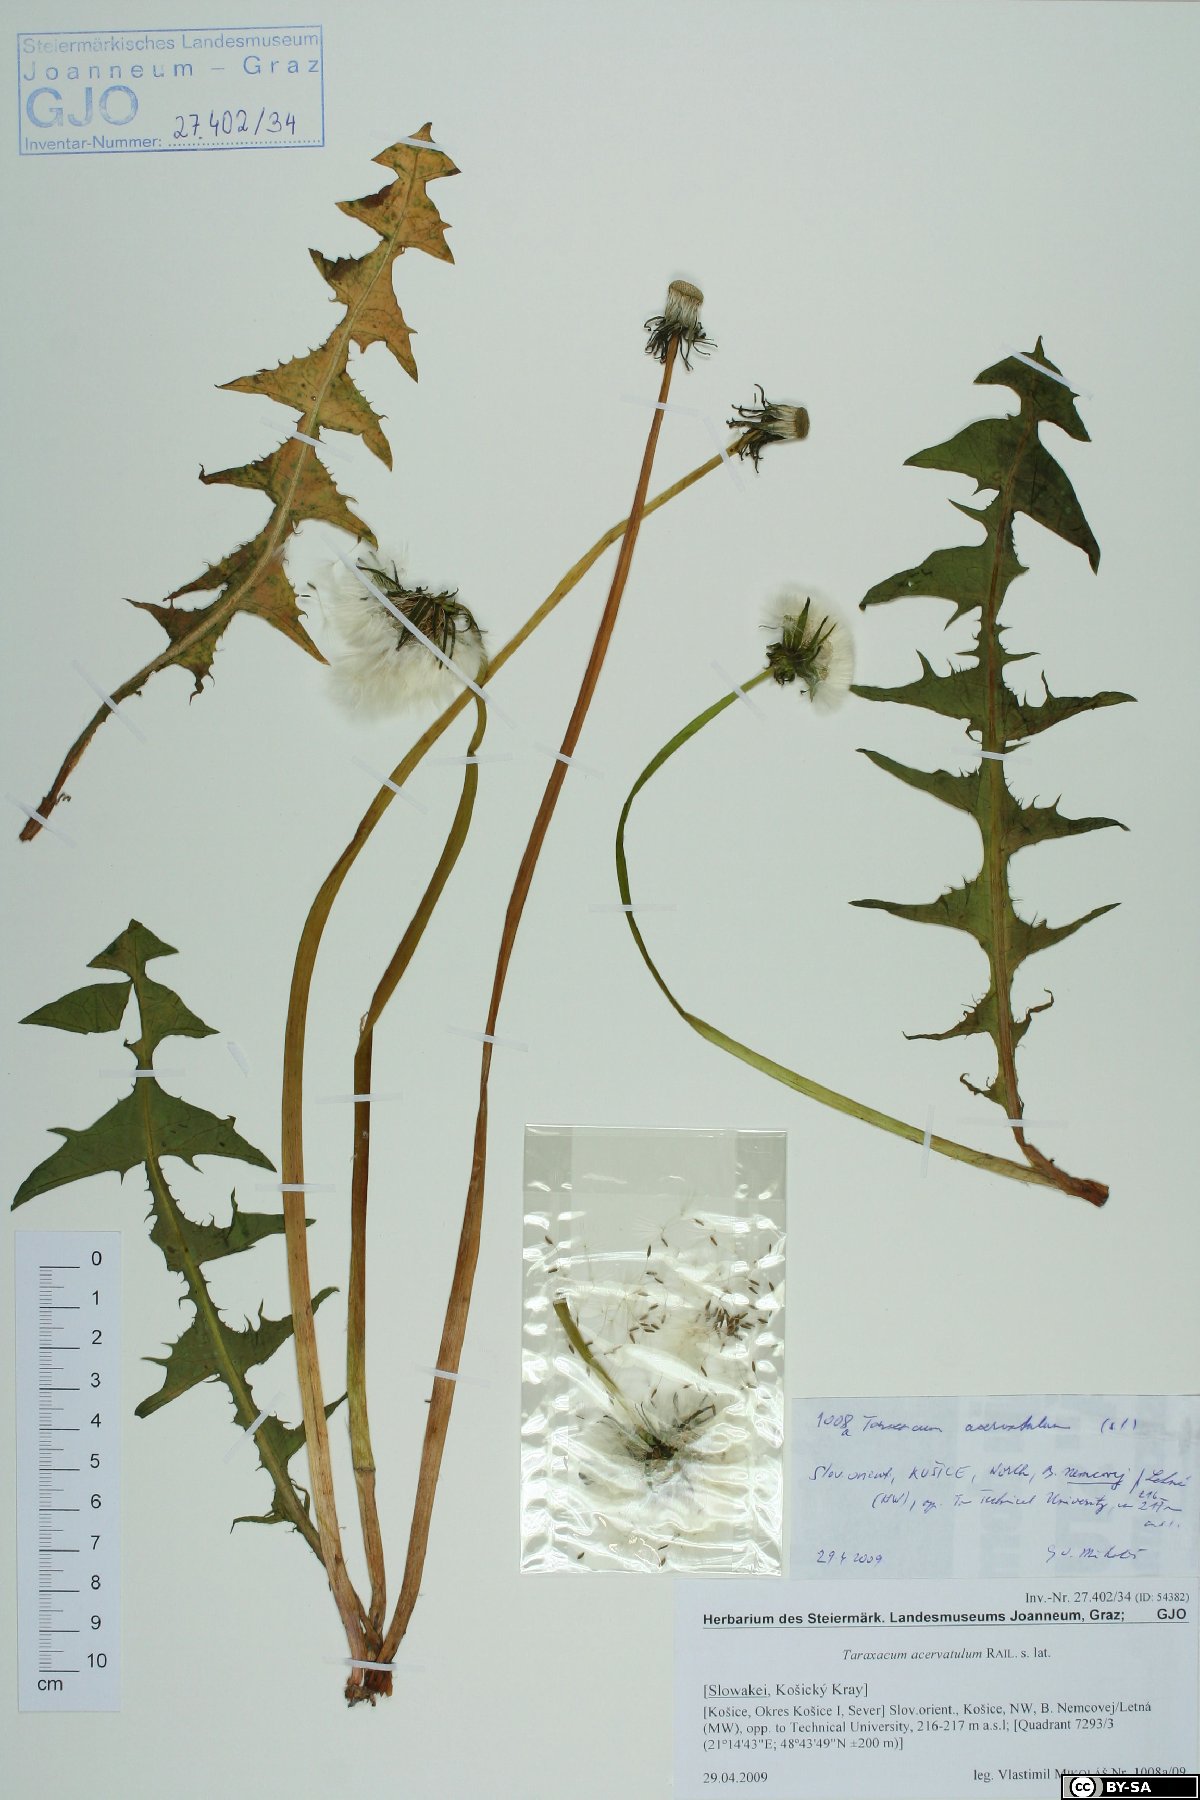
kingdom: Plantae
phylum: Tracheophyta
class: Magnoliopsida
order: Asterales
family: Asteraceae
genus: Taraxacum
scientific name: Taraxacum acervatulum
